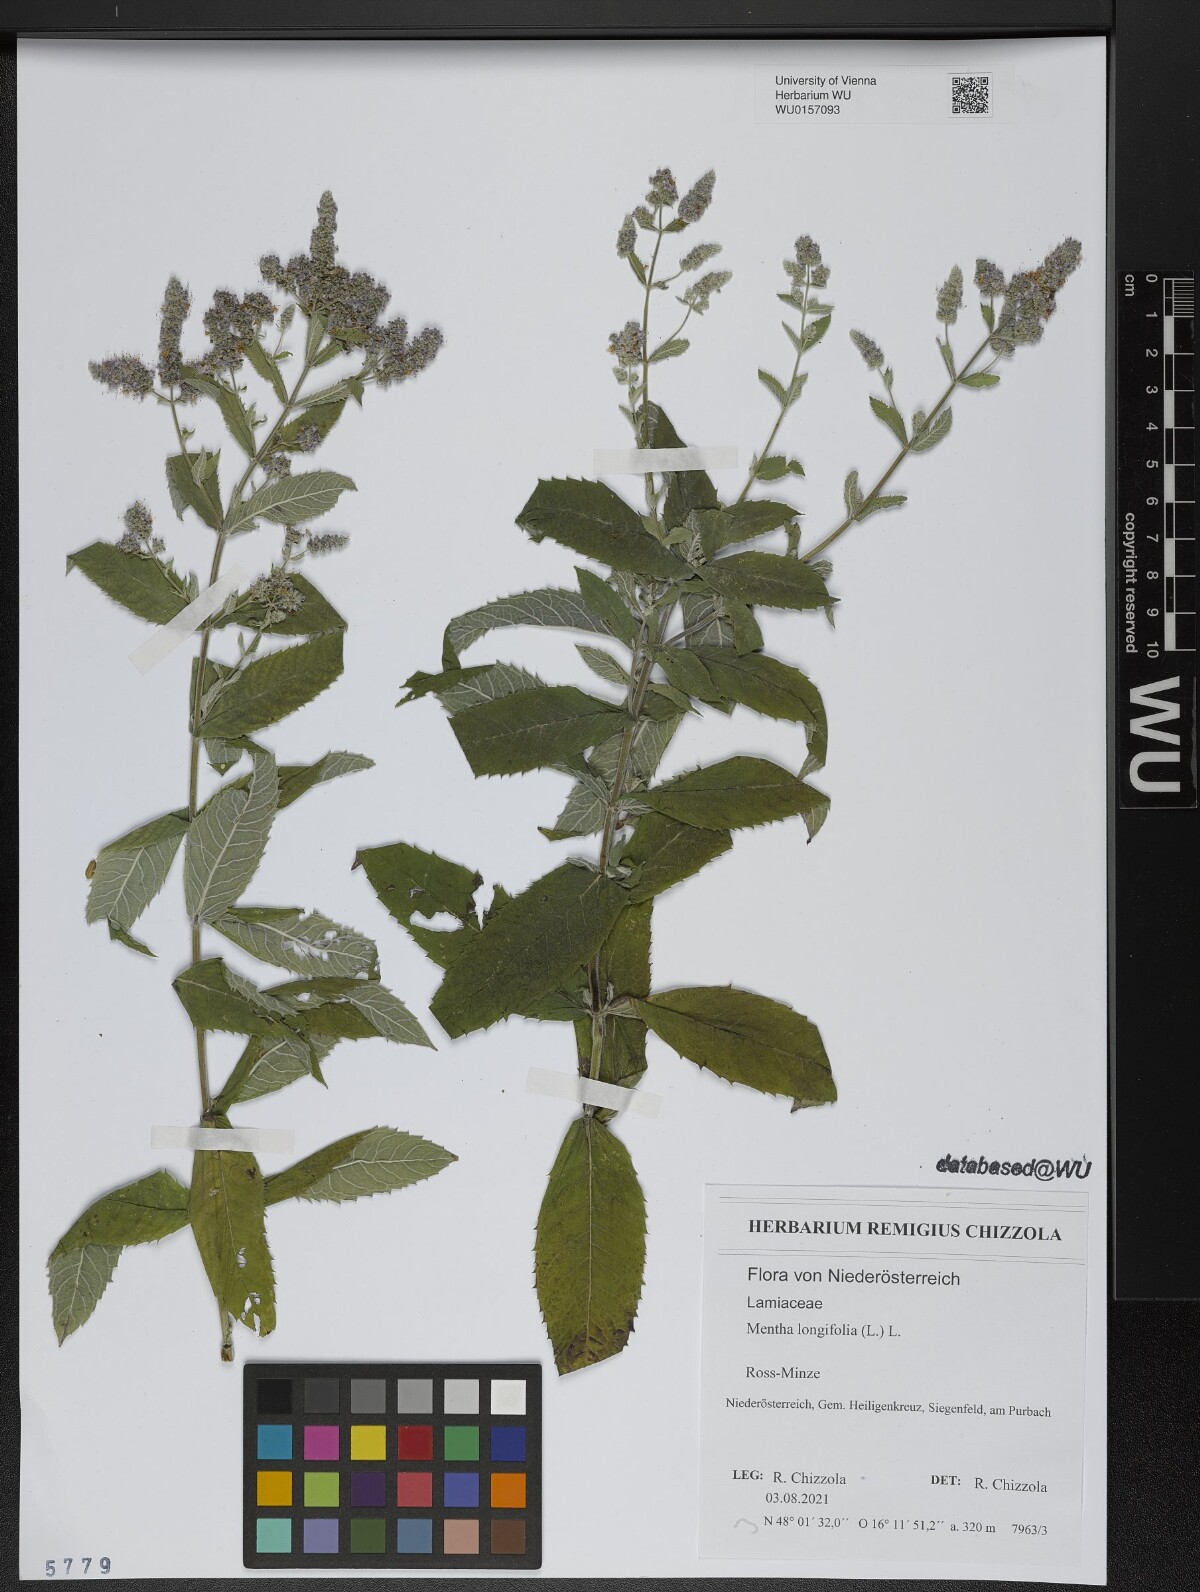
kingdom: Plantae
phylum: Tracheophyta
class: Magnoliopsida
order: Lamiales
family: Lamiaceae
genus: Mentha
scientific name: Mentha longifolia
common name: Horse mint
